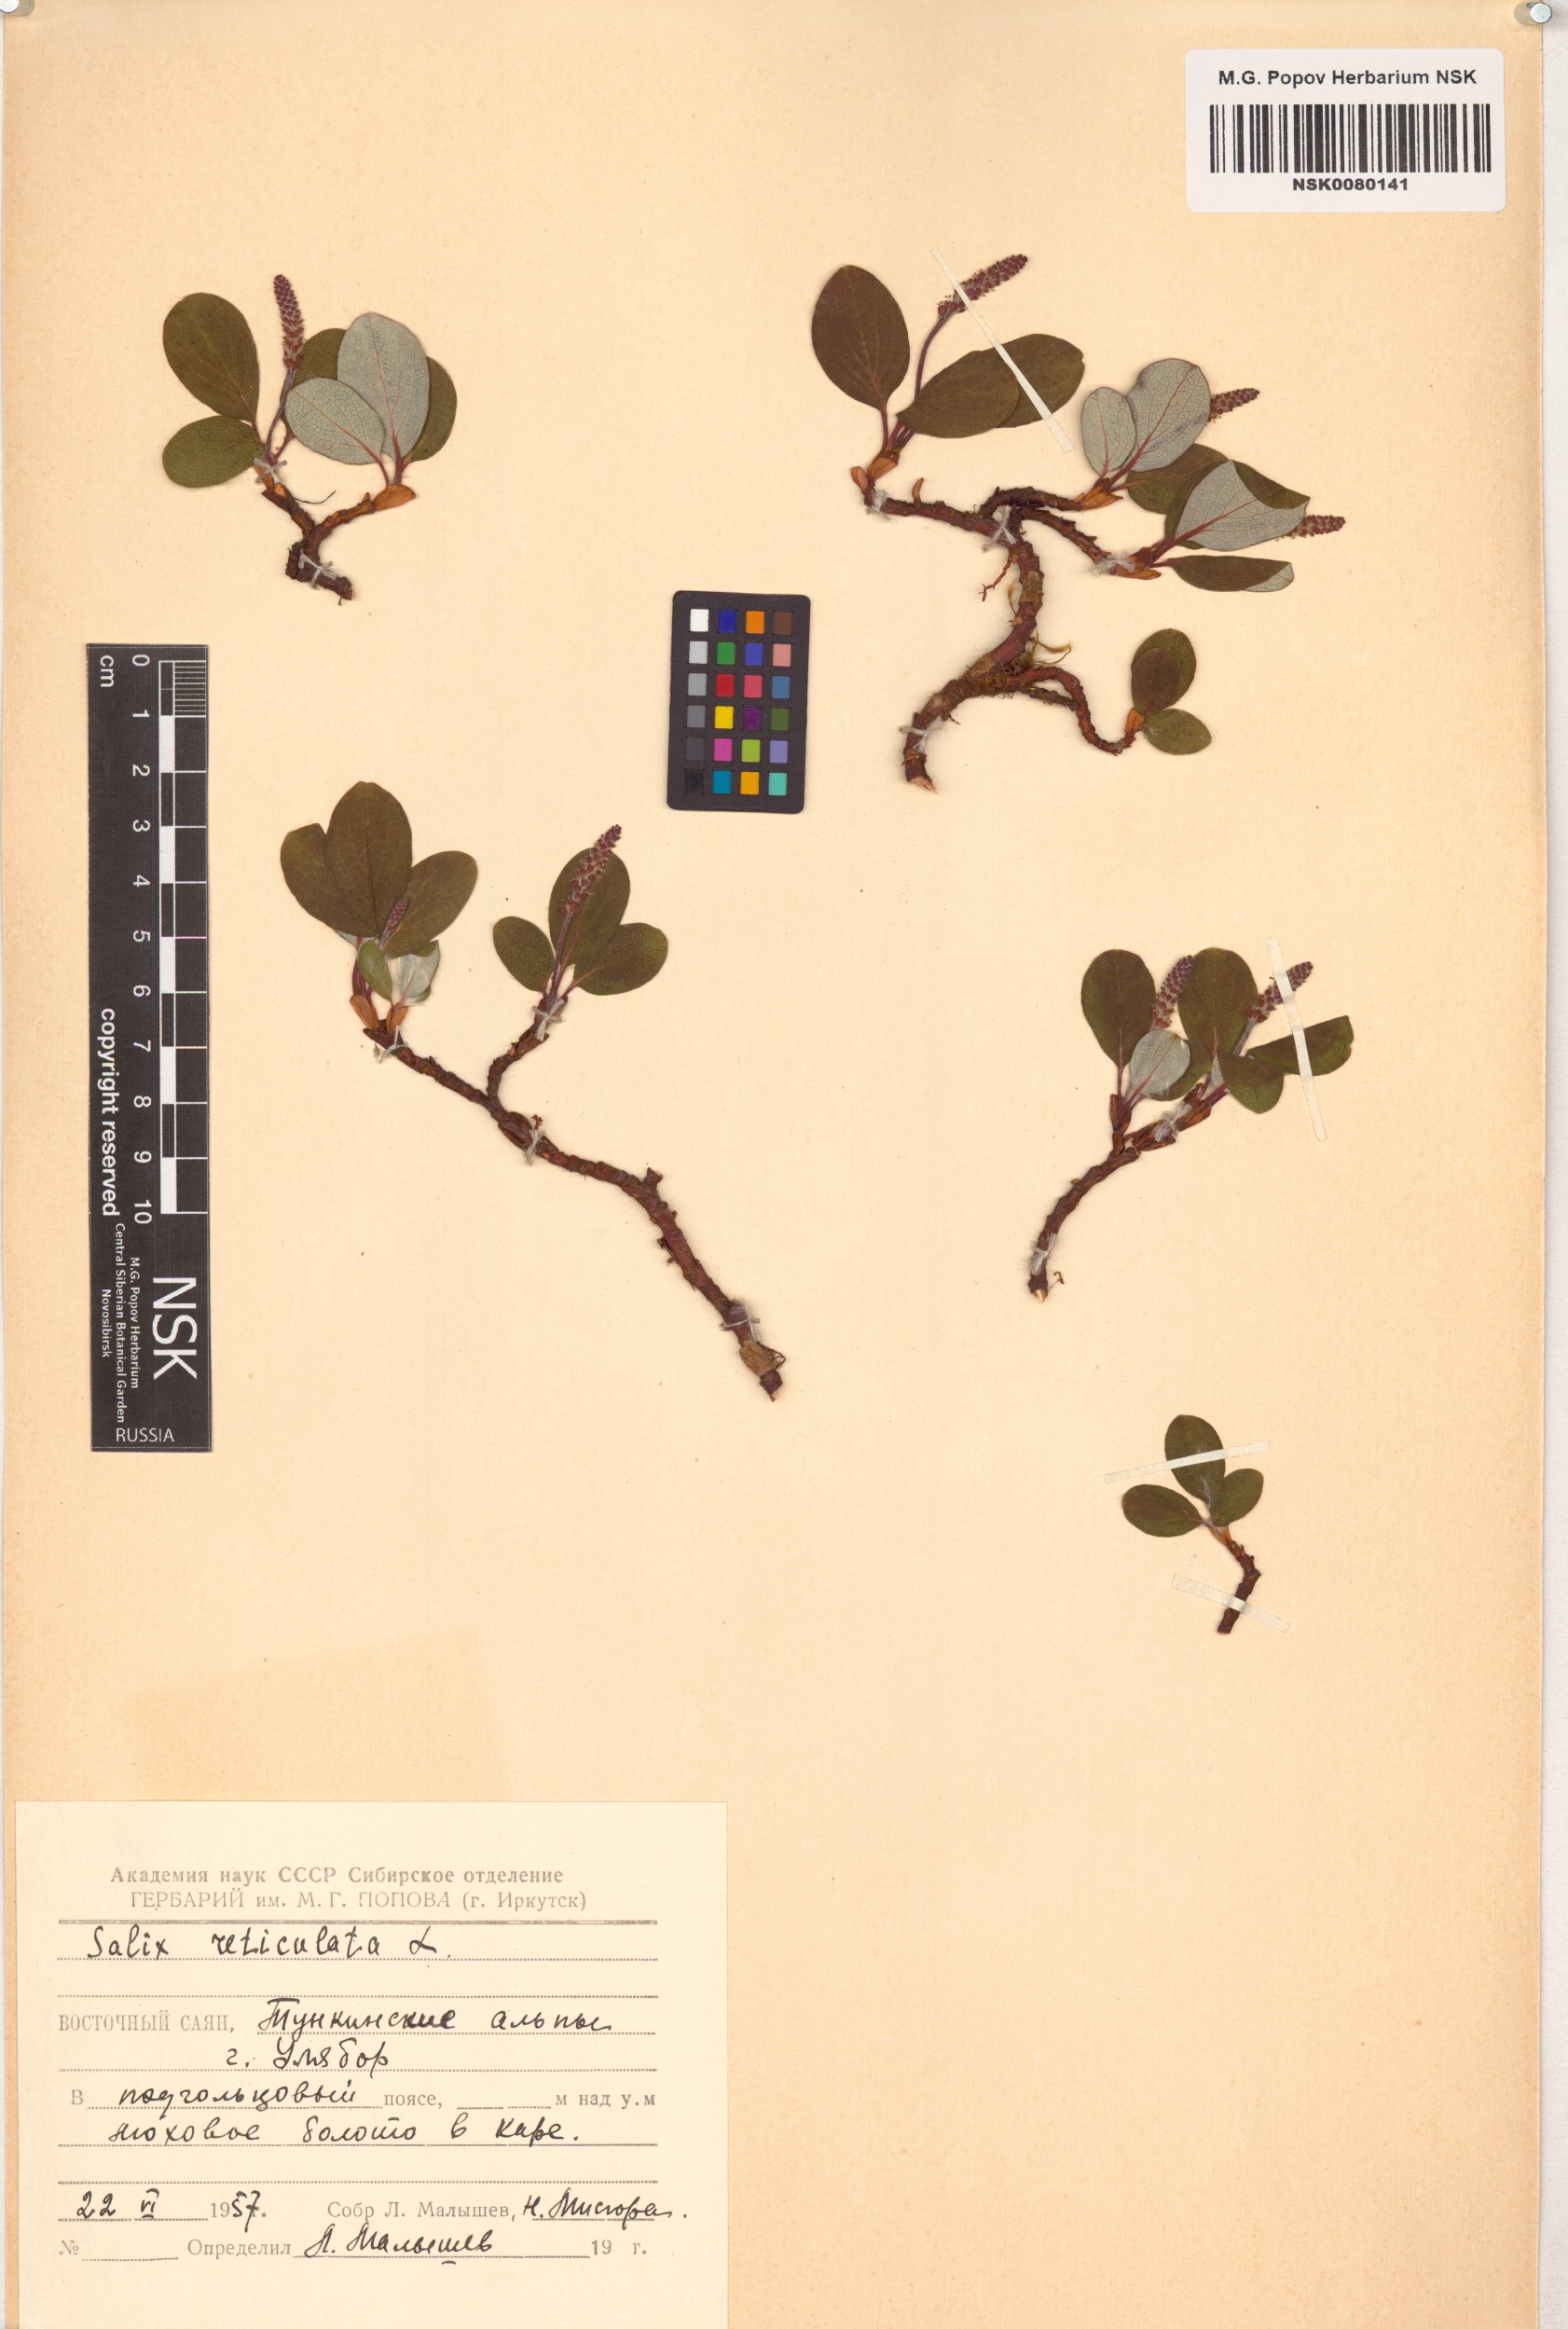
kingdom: Plantae
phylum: Tracheophyta
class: Magnoliopsida
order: Malpighiales
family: Salicaceae
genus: Salix
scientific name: Salix reticulata
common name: Net-leaved willow
